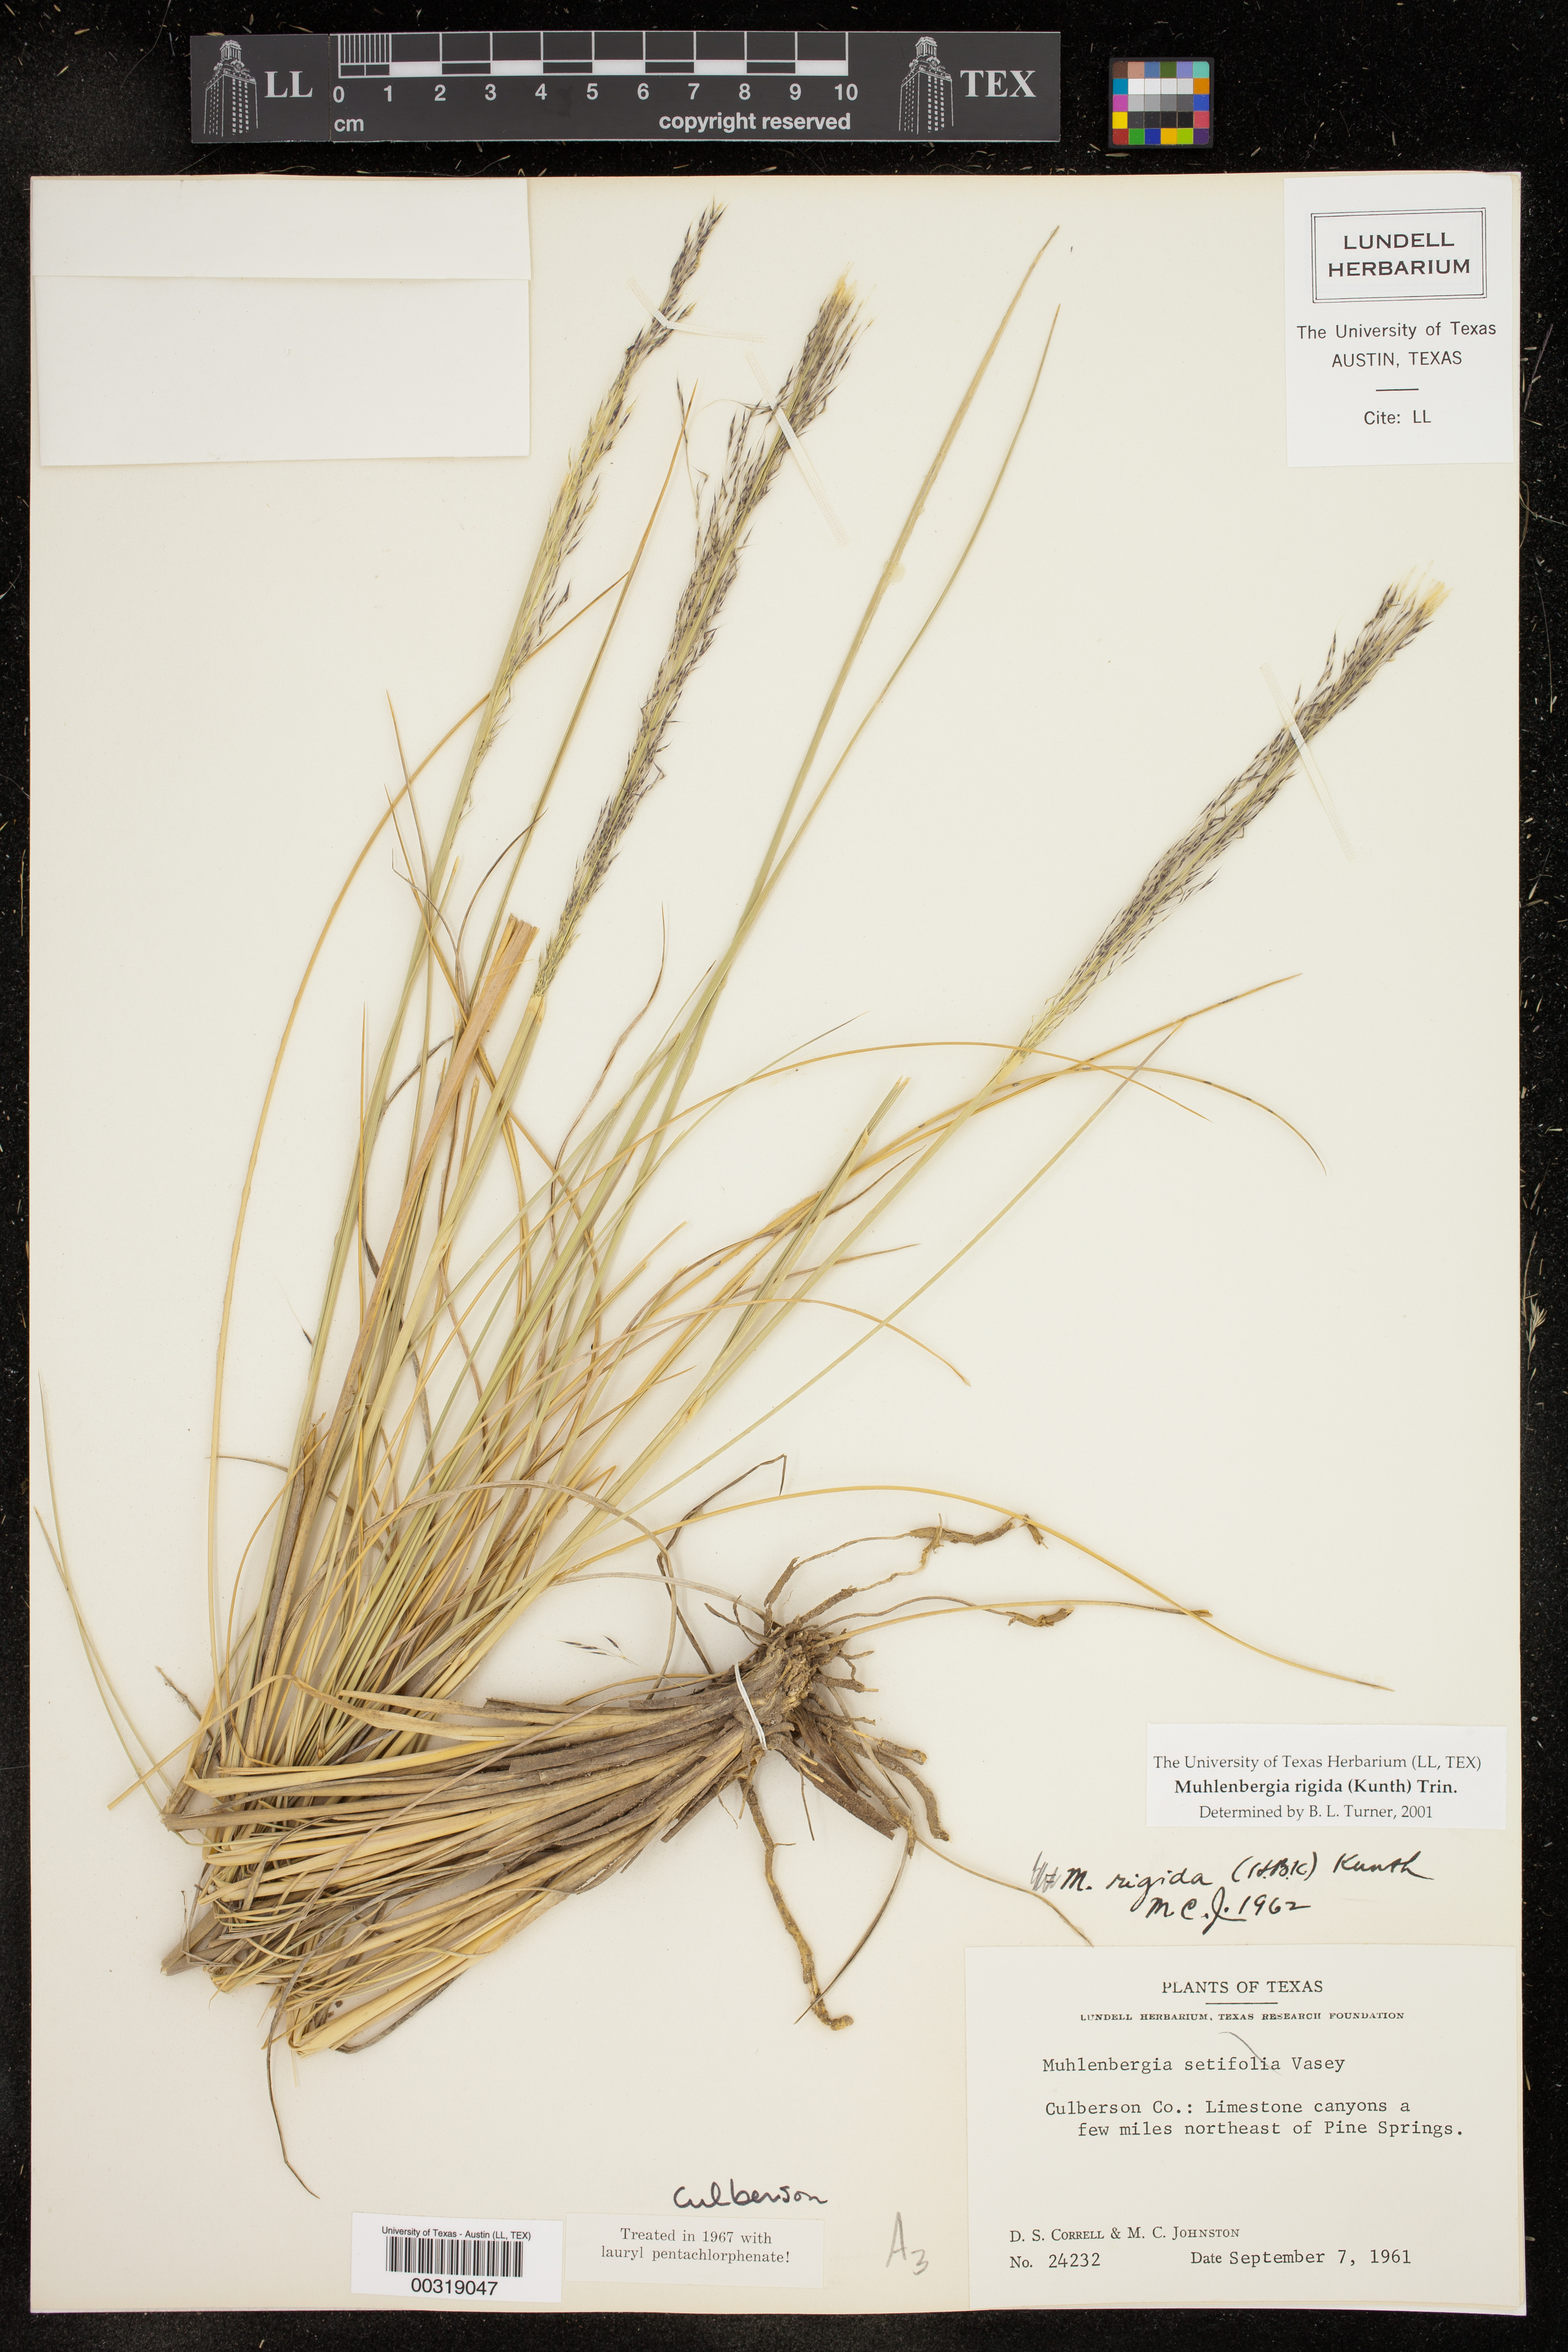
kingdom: Plantae
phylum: Tracheophyta
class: Liliopsida
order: Poales
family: Poaceae
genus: Muhlenbergia
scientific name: Muhlenbergia rigida
